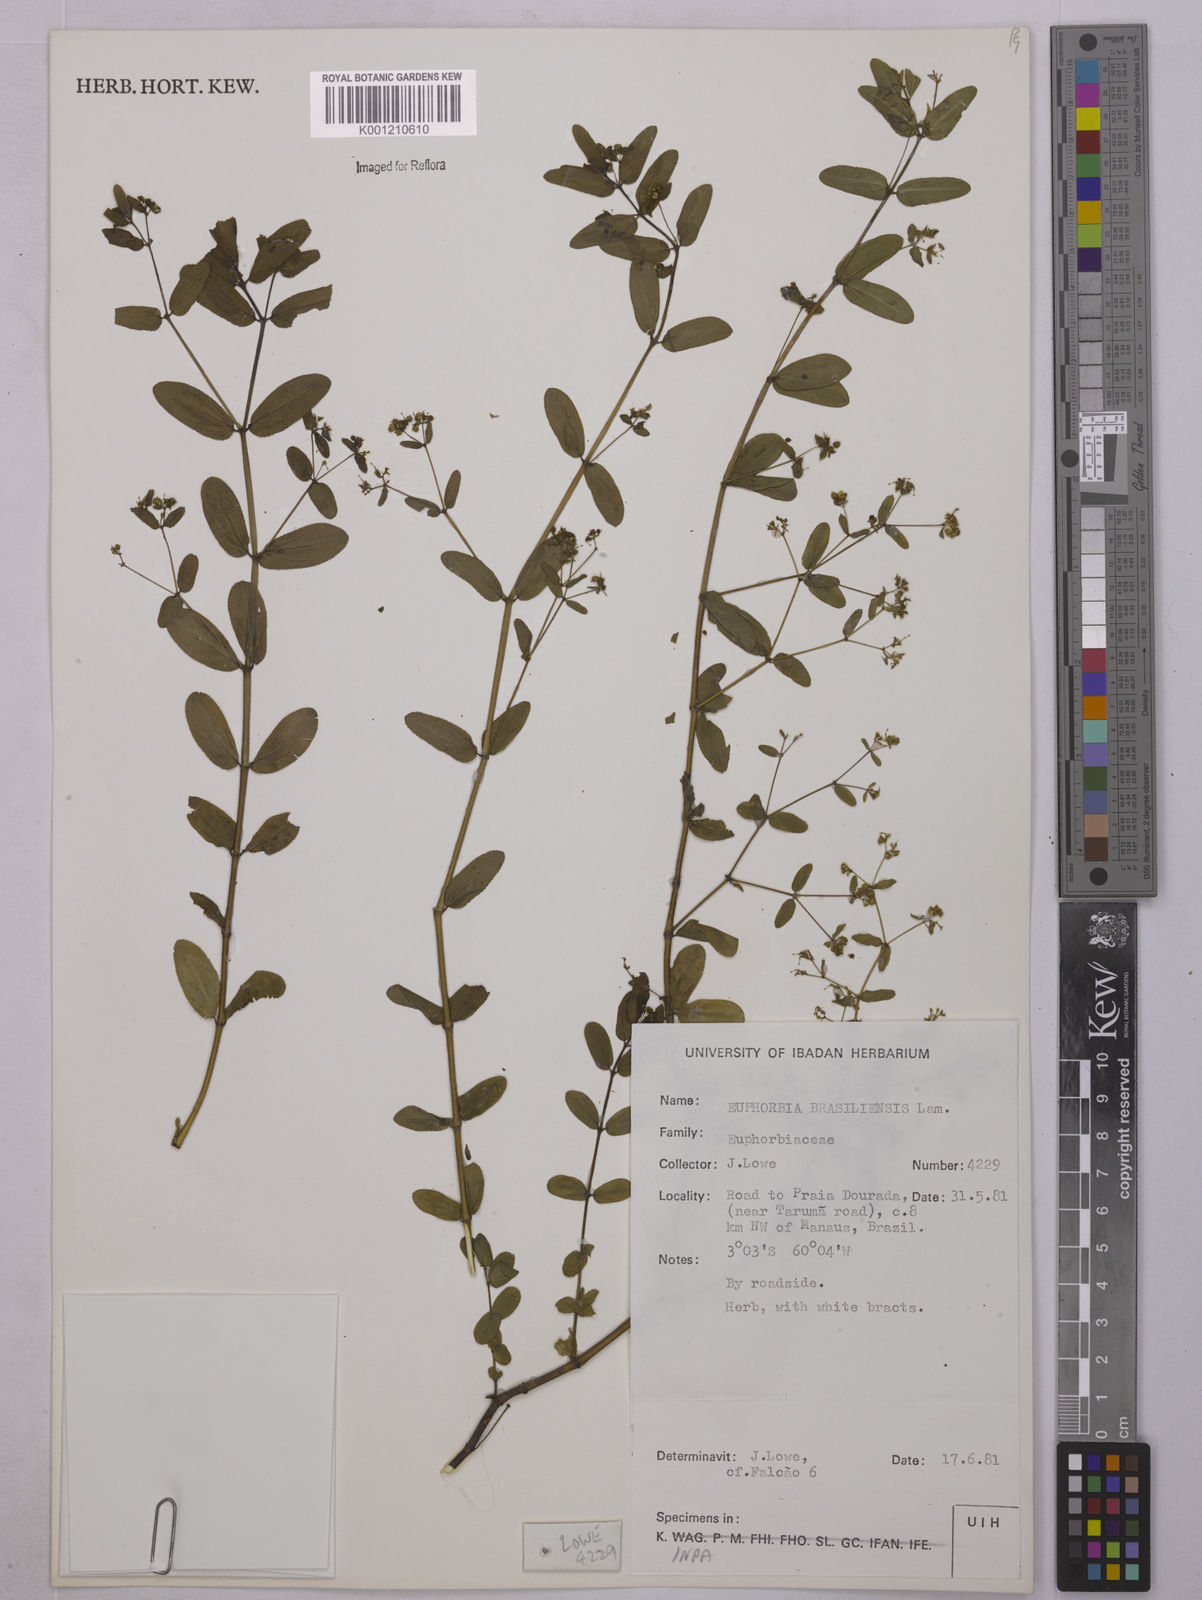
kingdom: Plantae
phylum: Tracheophyta
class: Magnoliopsida
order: Malpighiales
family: Euphorbiaceae
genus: Euphorbia
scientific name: Euphorbia hyssopifolia
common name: Hyssopleaf sandmat
